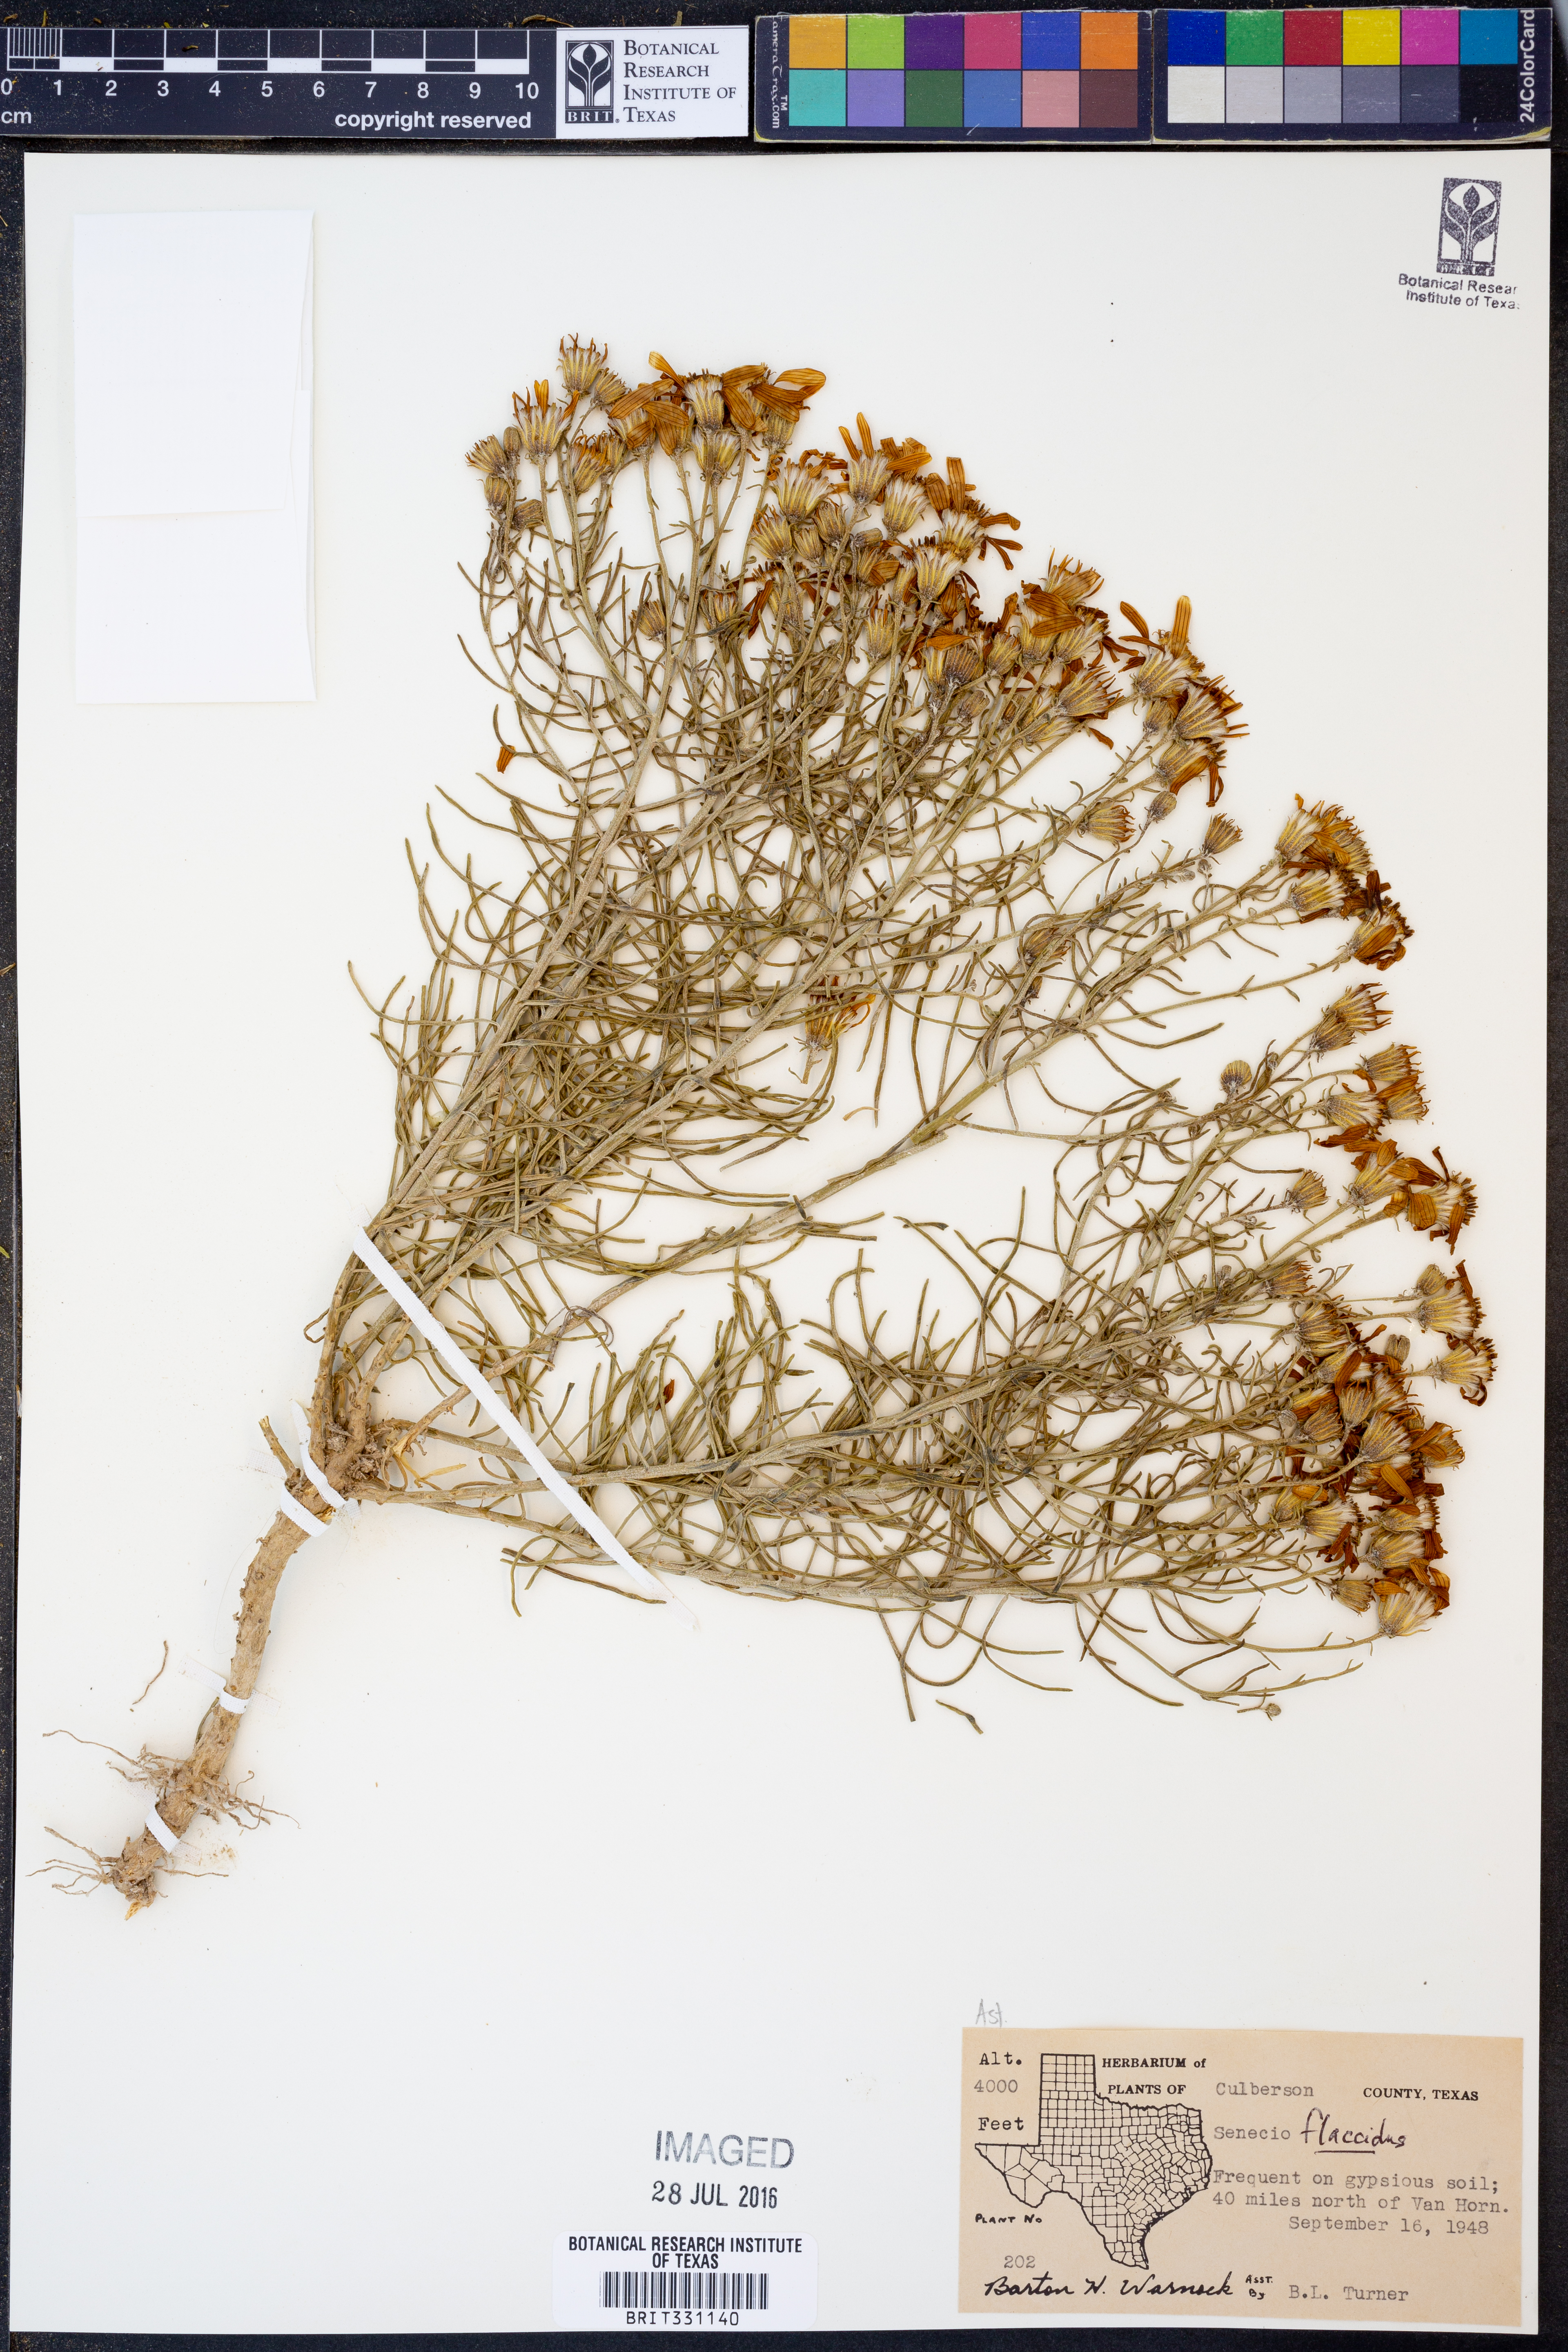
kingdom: Plantae
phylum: Tracheophyta
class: Magnoliopsida
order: Asterales
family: Asteraceae
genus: Senecio
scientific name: Senecio flaccidus
